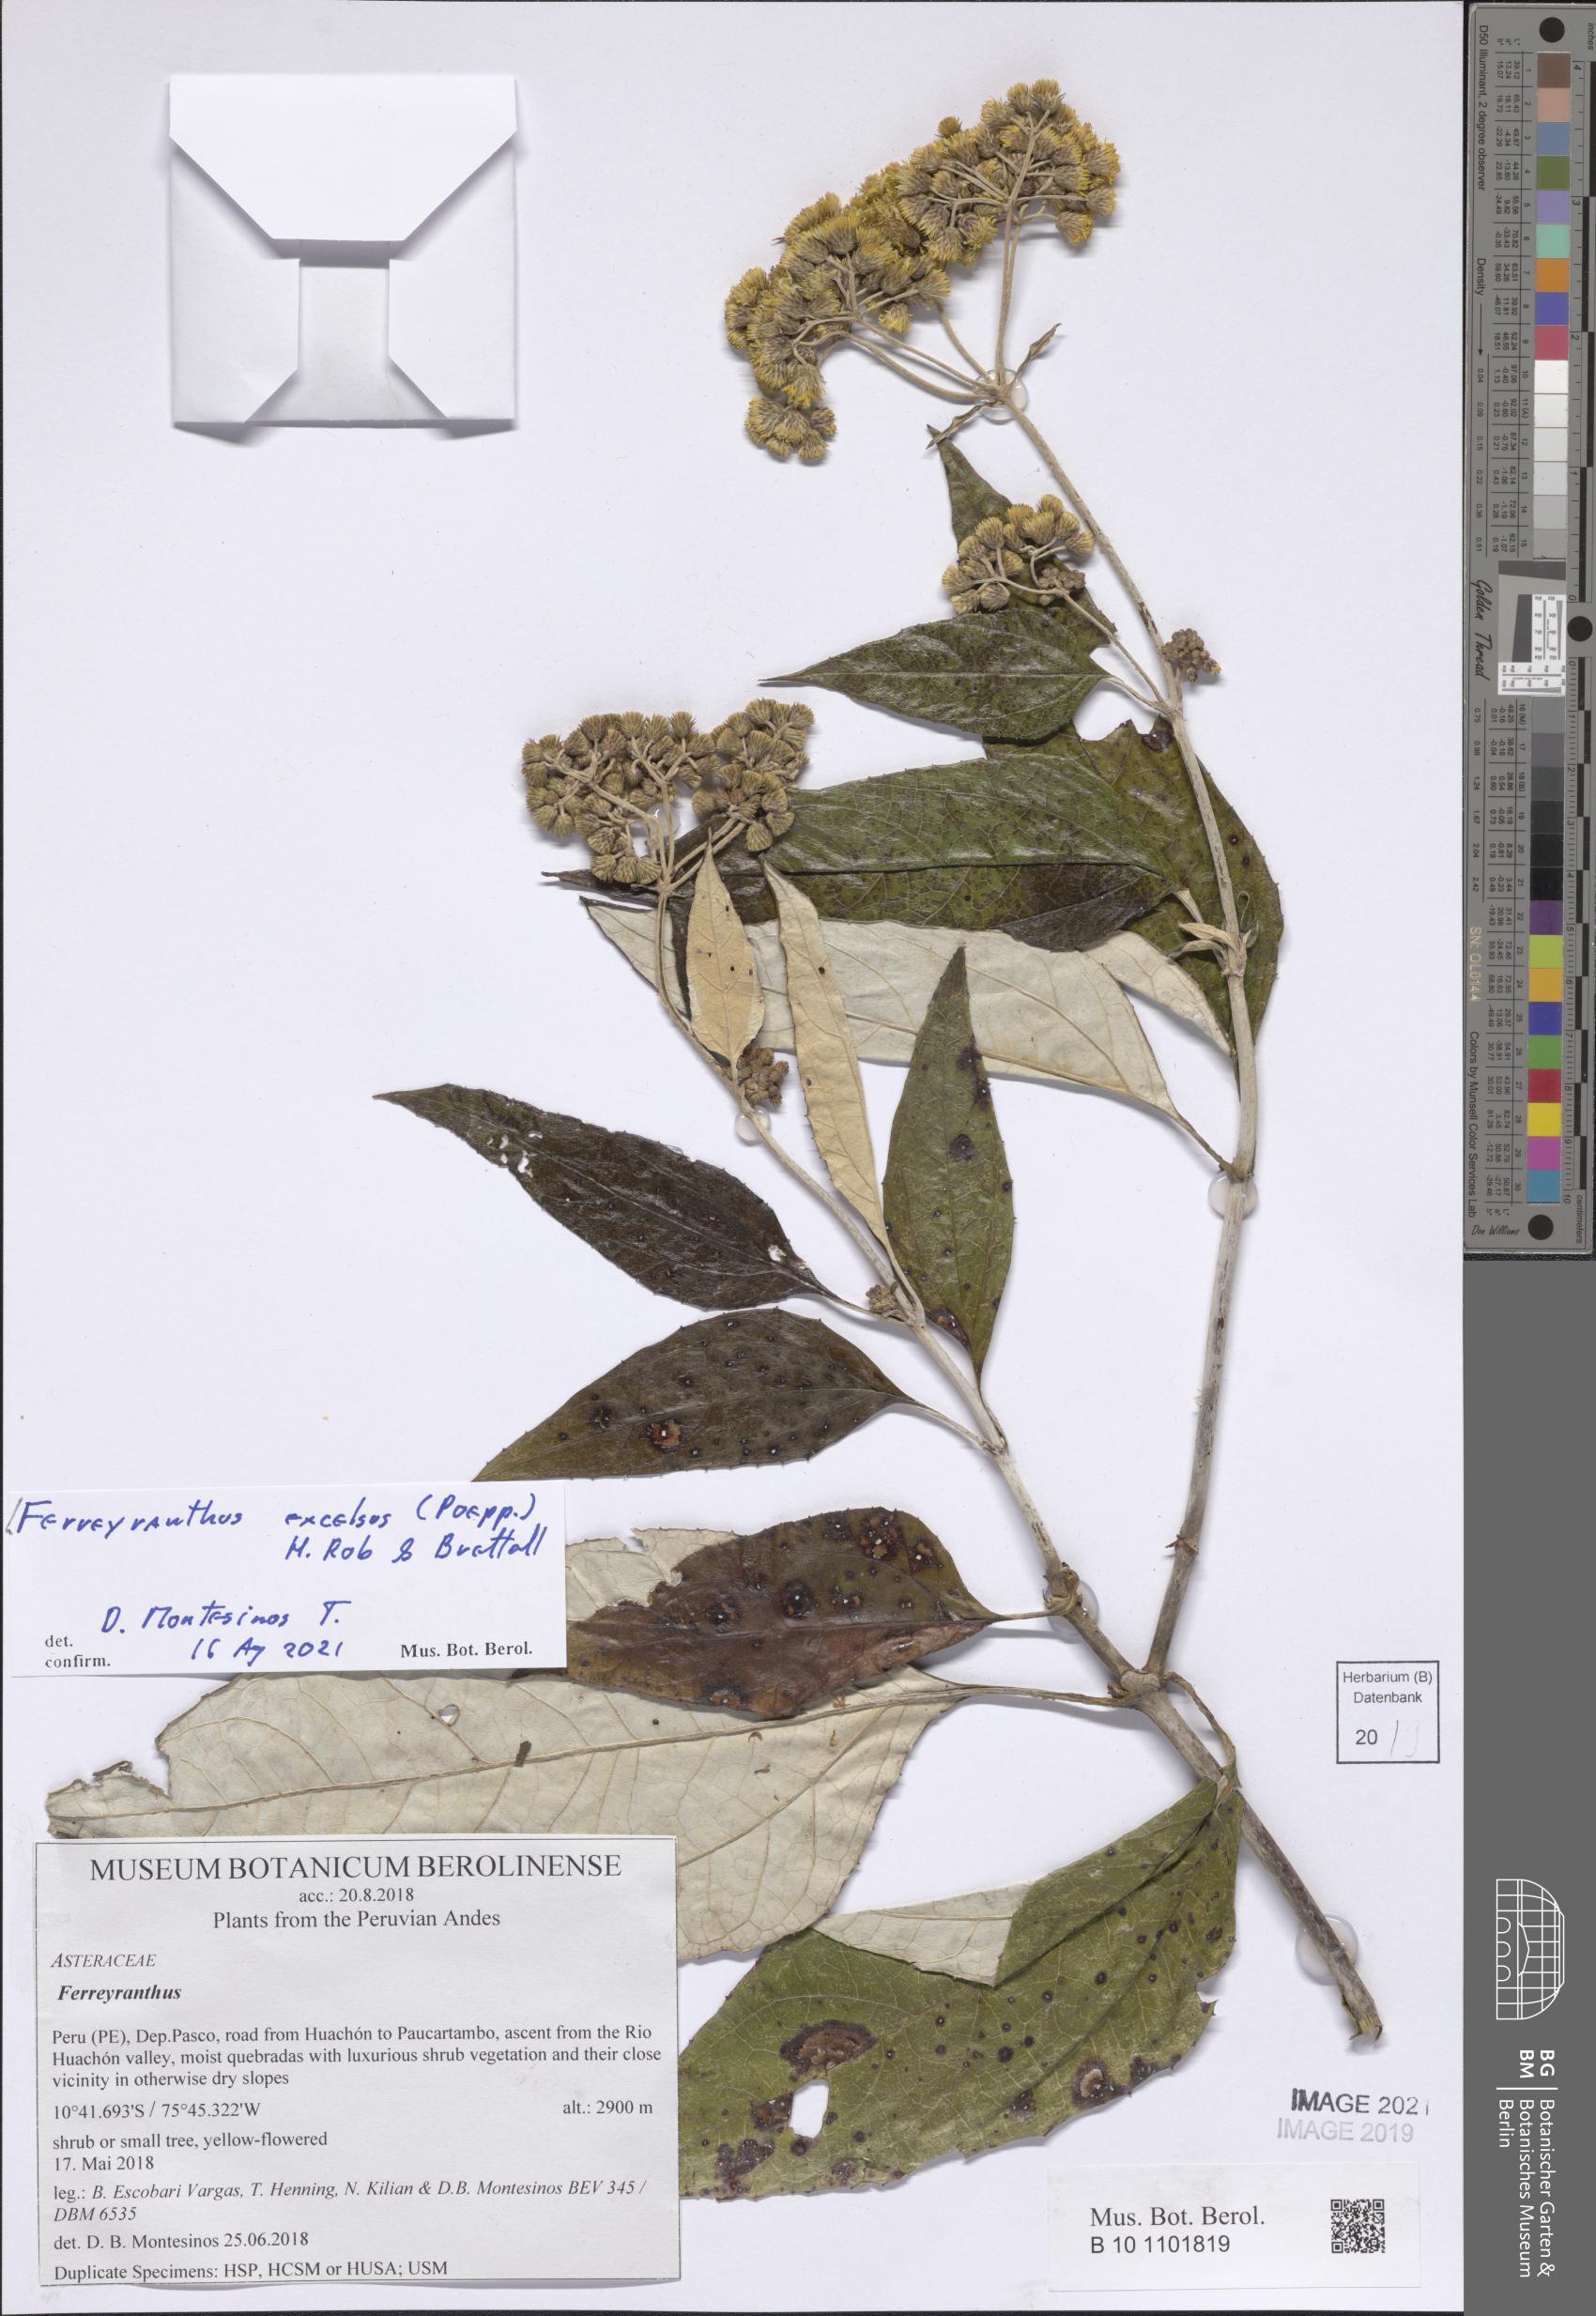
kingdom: Plantae
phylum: Tracheophyta
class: Magnoliopsida
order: Asterales
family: Asteraceae
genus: Ferreyranthus
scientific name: Ferreyranthus excelsus
